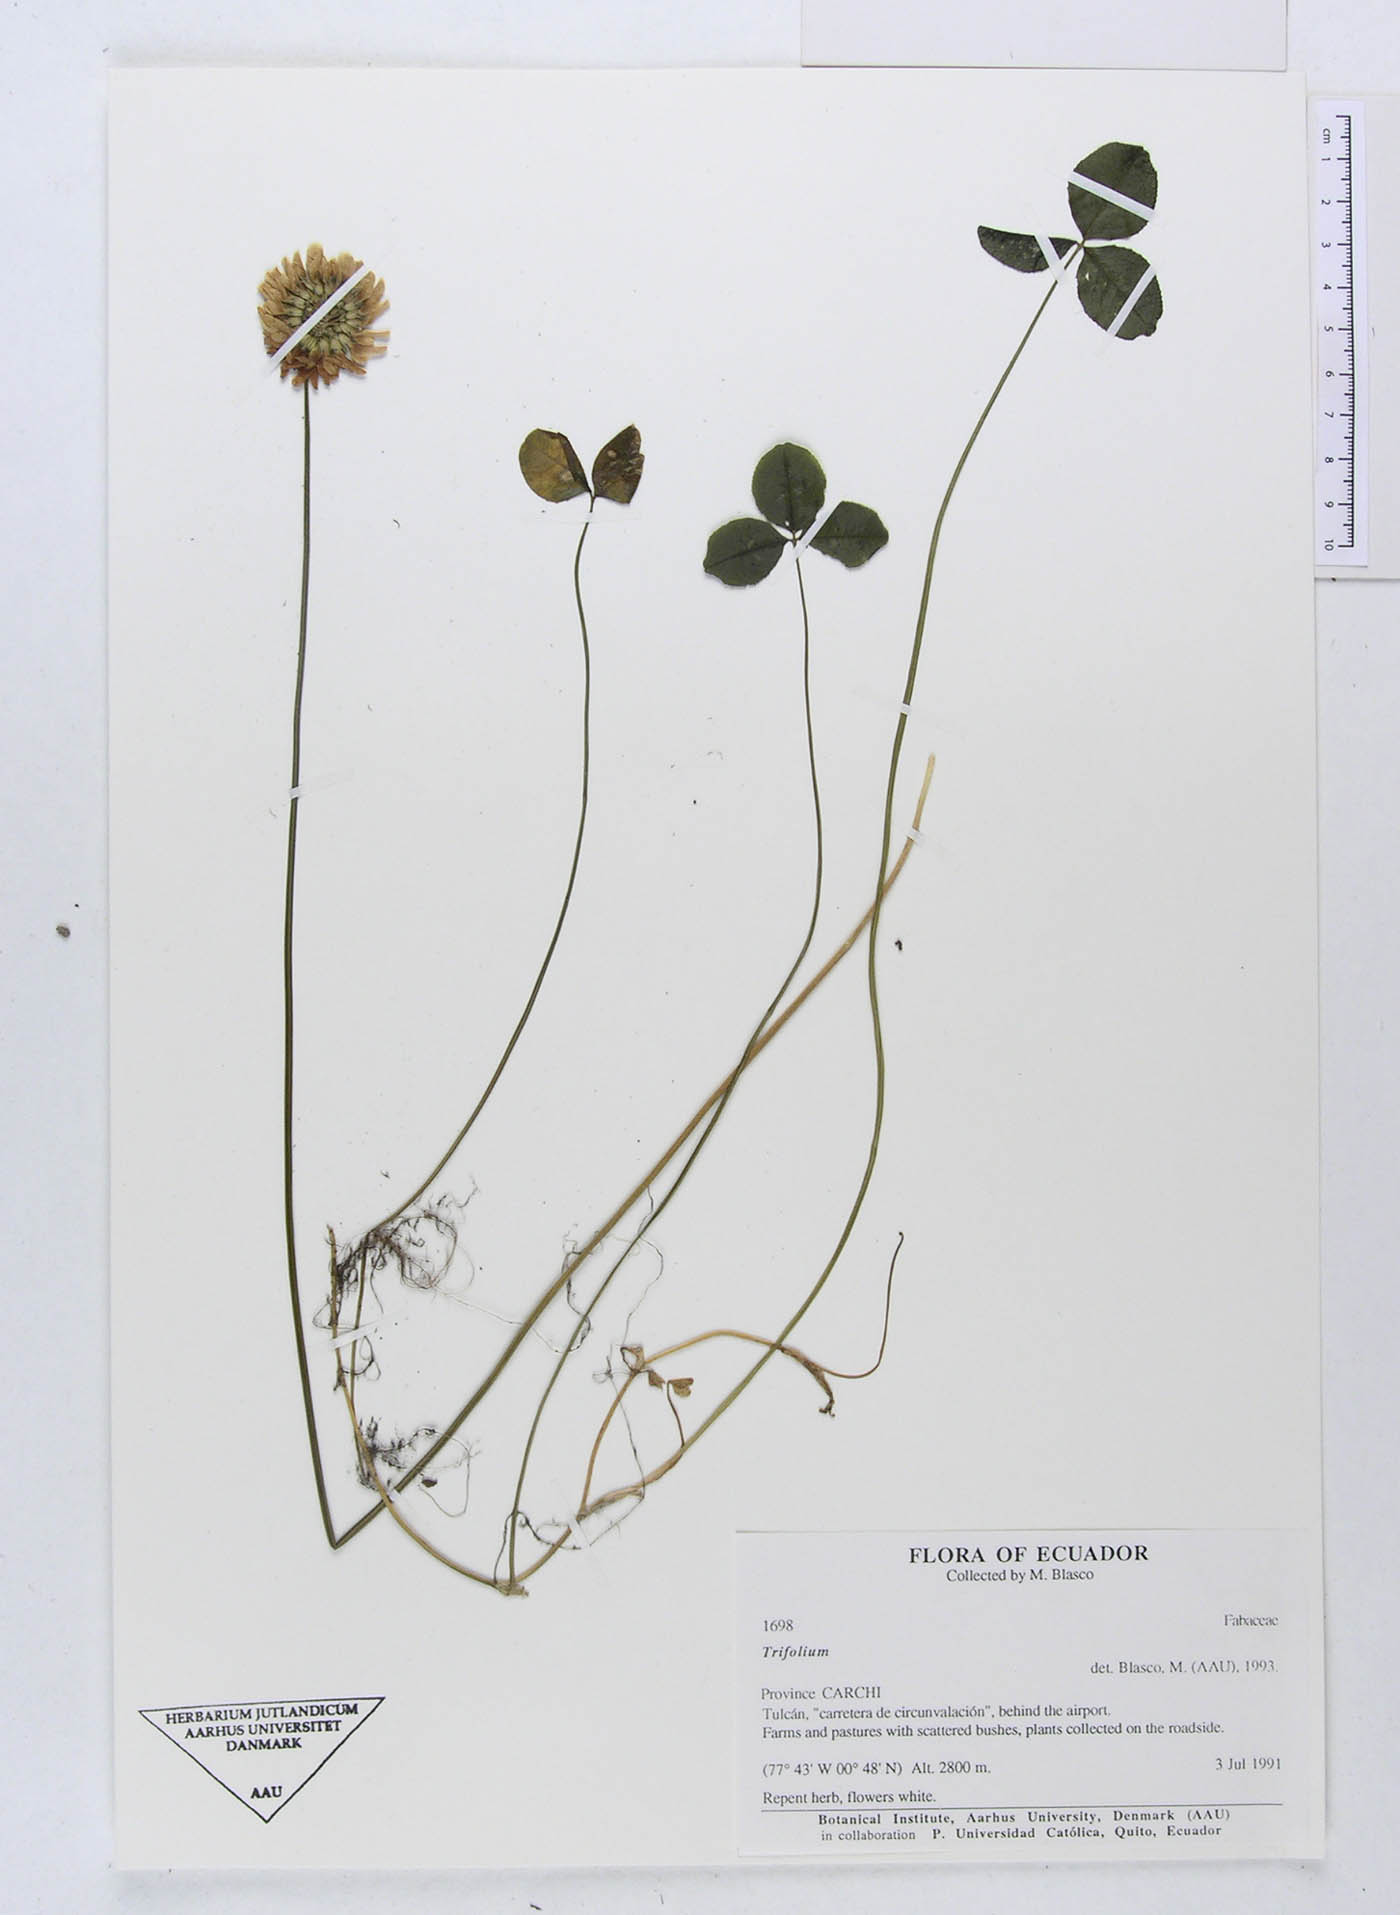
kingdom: Plantae
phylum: Tracheophyta
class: Magnoliopsida
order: Fabales
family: Fabaceae
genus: Trifolium
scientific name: Trifolium
